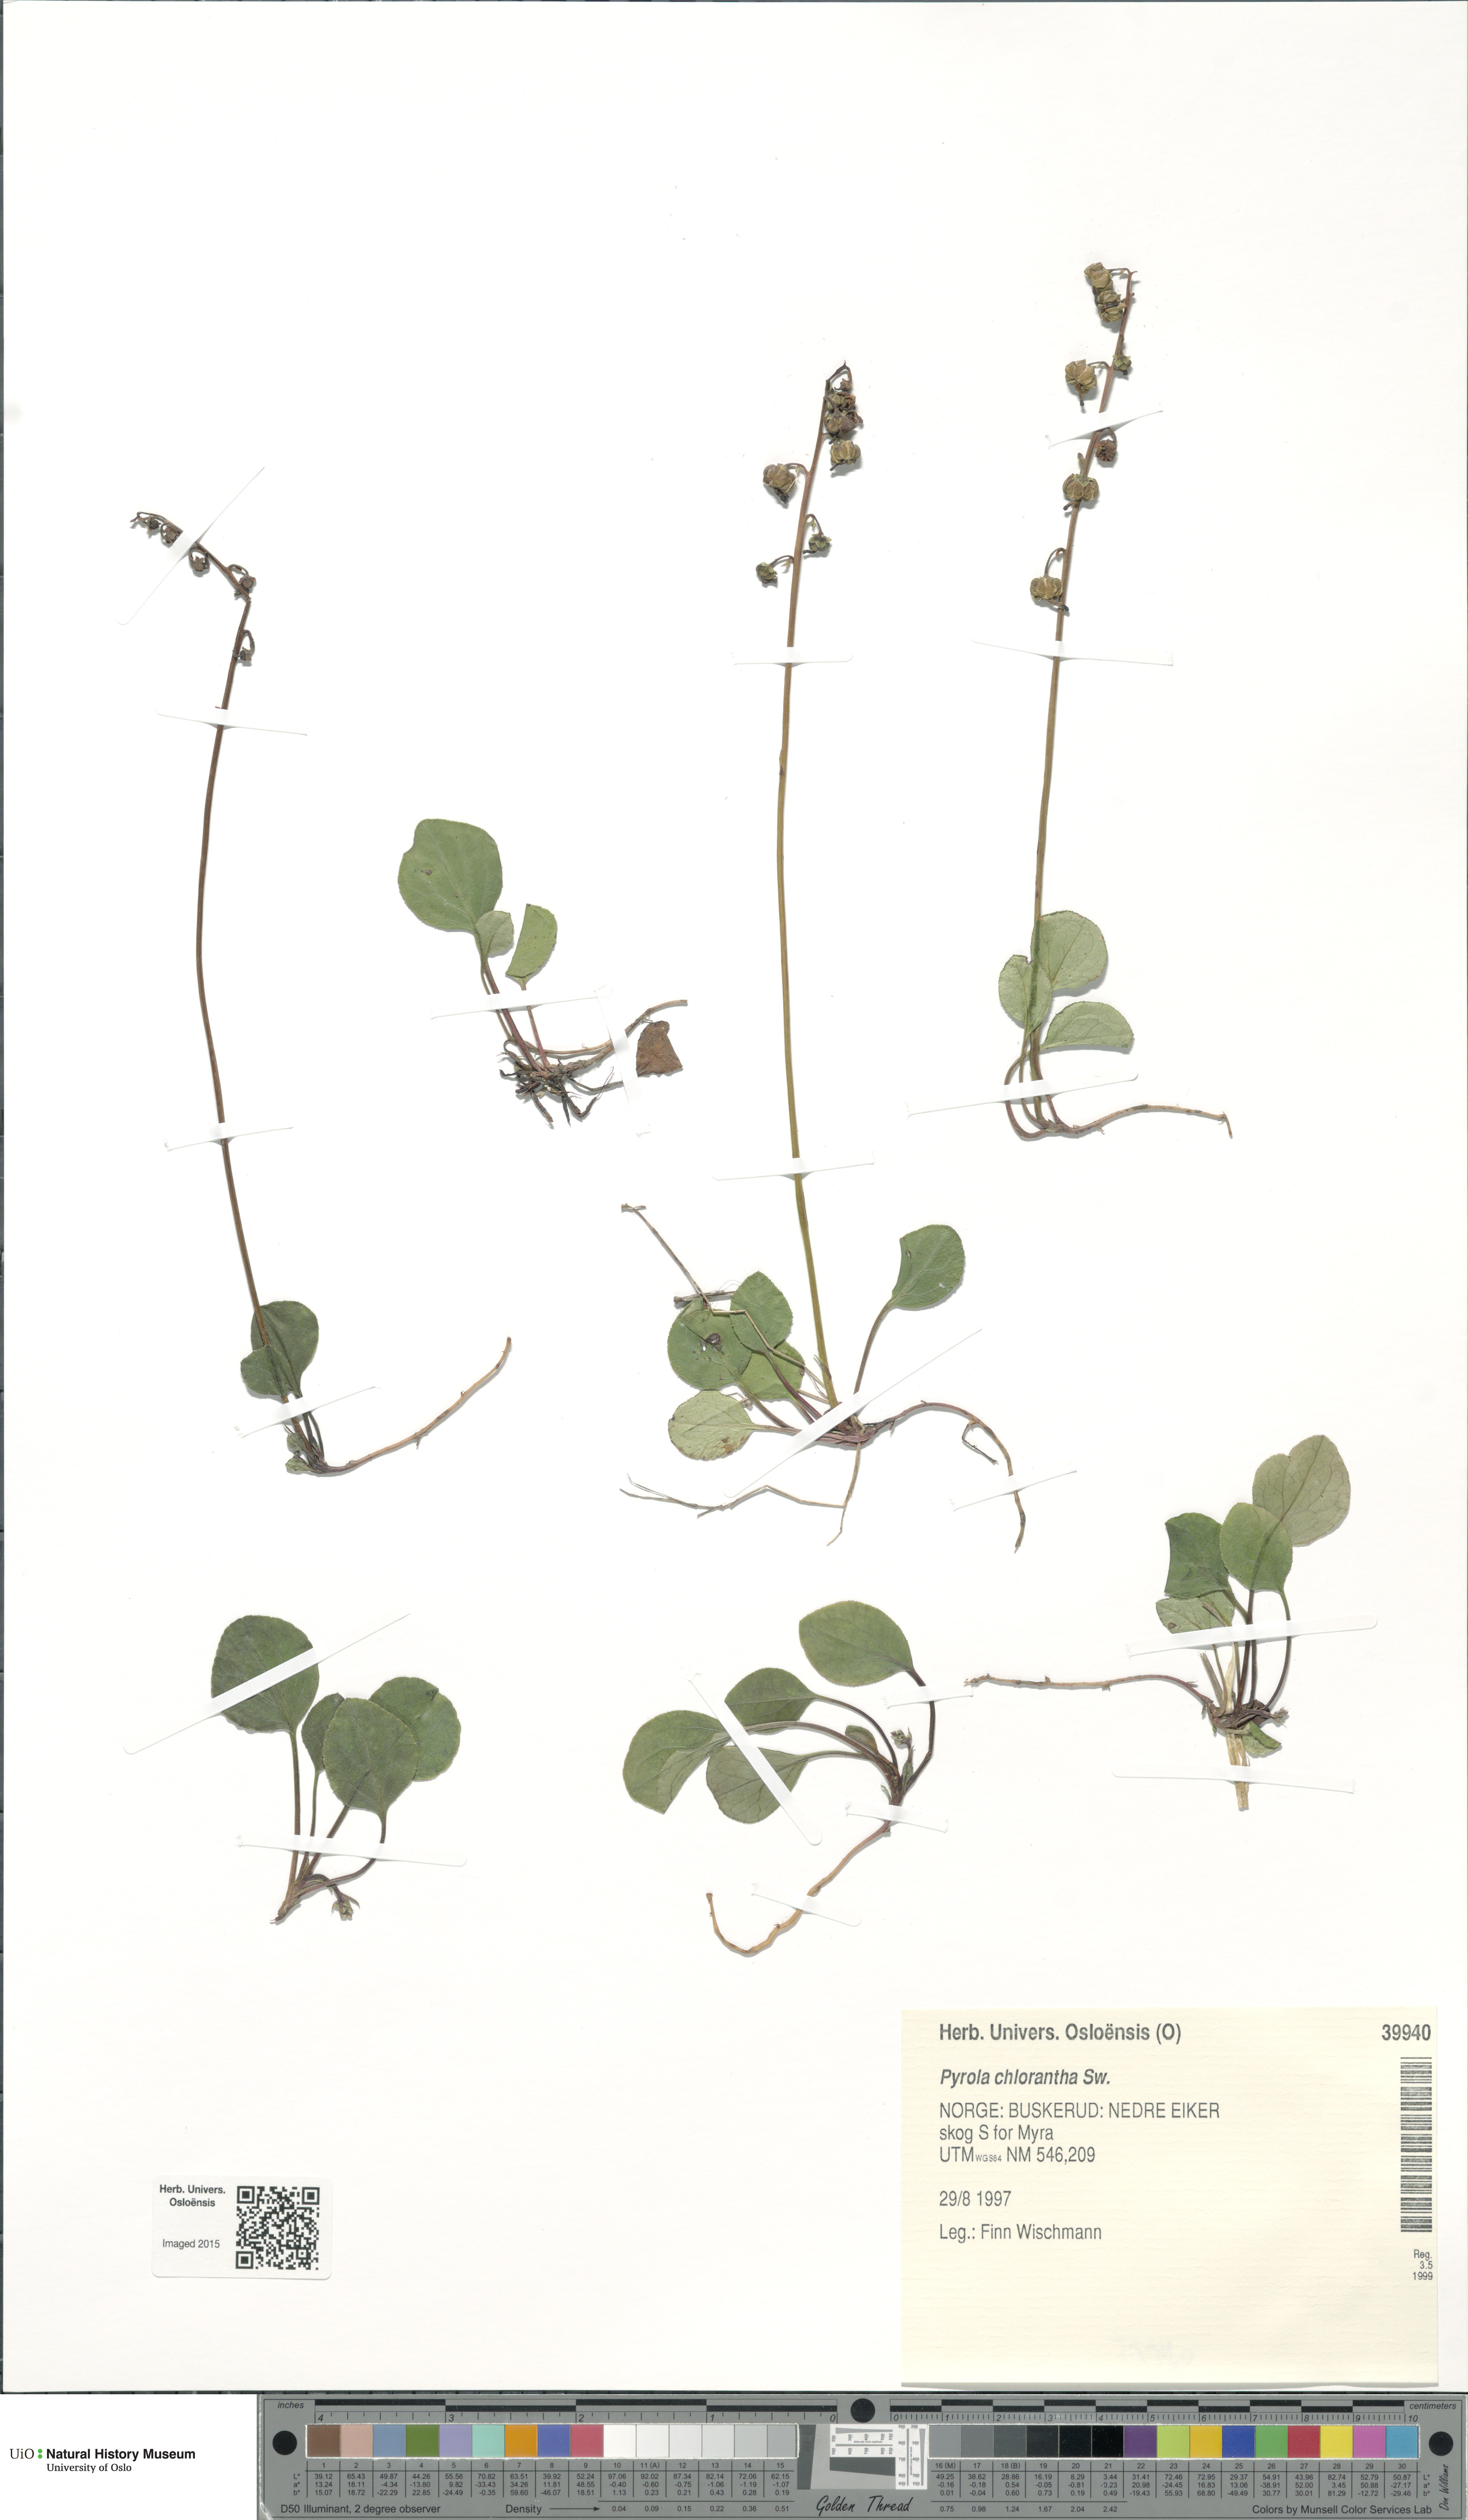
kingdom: Plantae
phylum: Tracheophyta
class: Magnoliopsida
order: Ericales
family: Ericaceae
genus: Pyrola
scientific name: Pyrola chlorantha
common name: Green wintergreen
